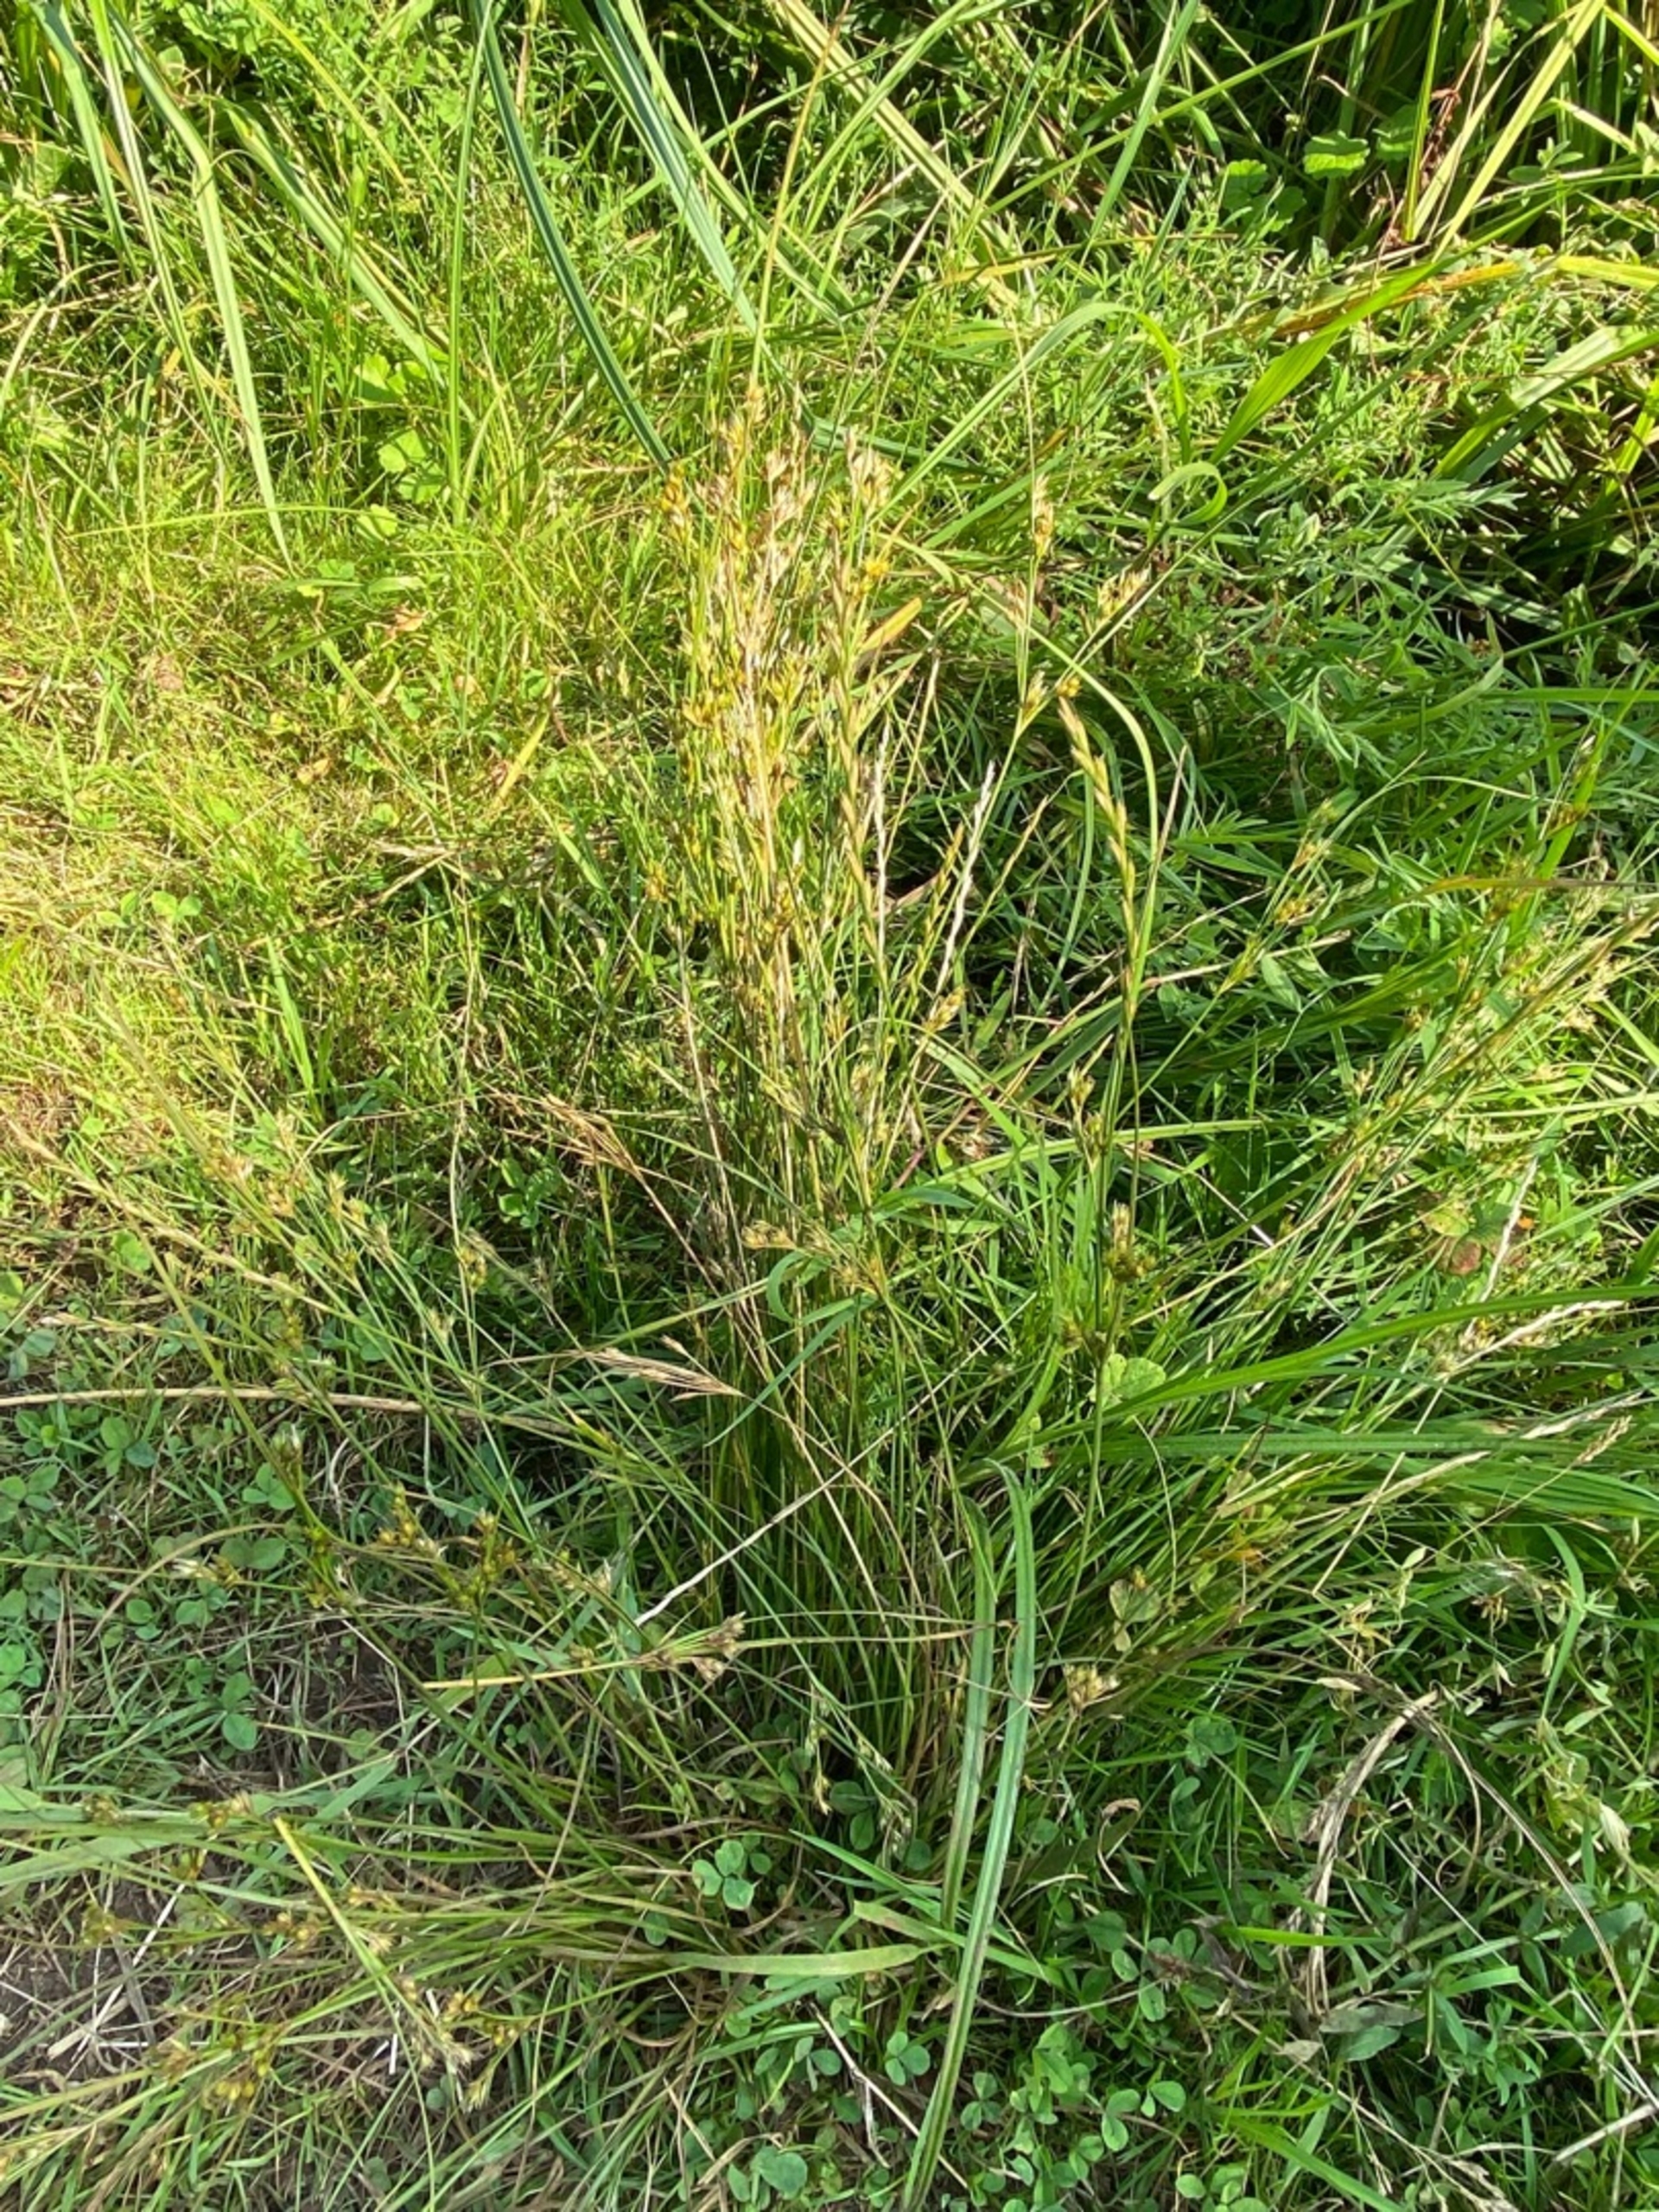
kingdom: Plantae
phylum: Tracheophyta
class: Liliopsida
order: Poales
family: Juncaceae
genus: Juncus
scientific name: Juncus tenuis
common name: Tue-siv
